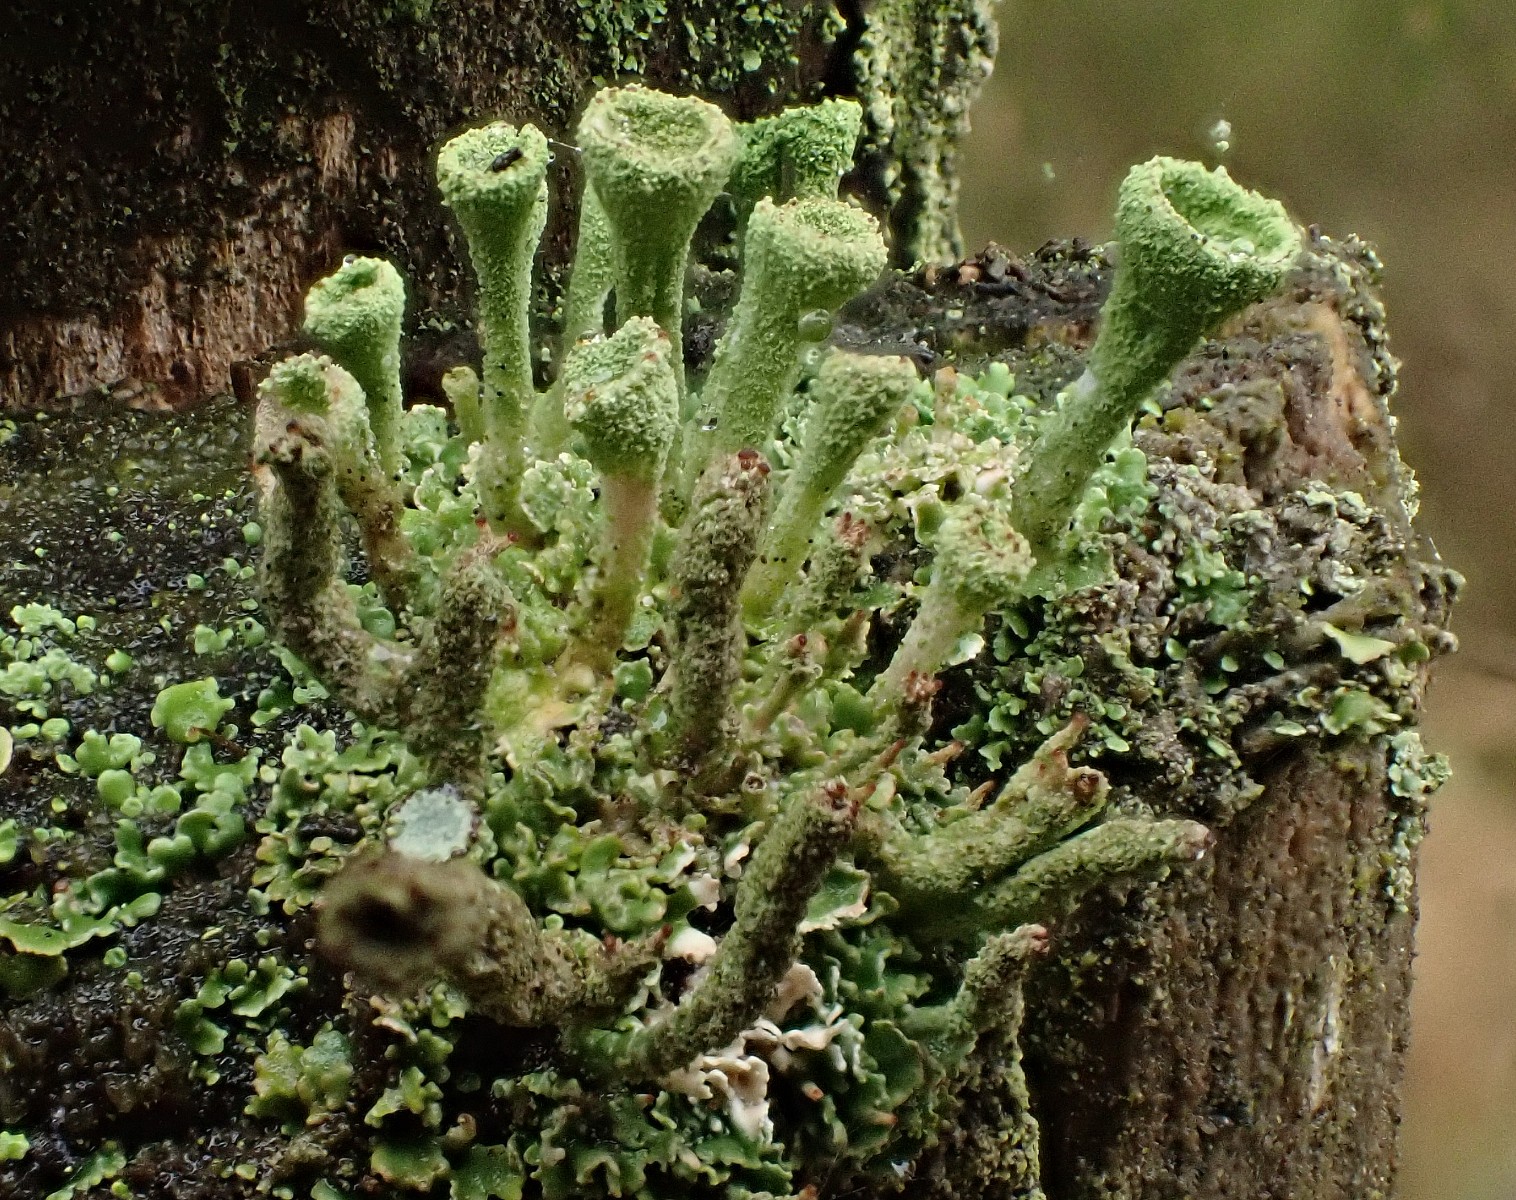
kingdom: Fungi
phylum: Ascomycota
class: Lecanoromycetes
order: Lecanorales
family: Cladoniaceae
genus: Cladonia
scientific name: Cladonia
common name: brungrøn bægerlav
